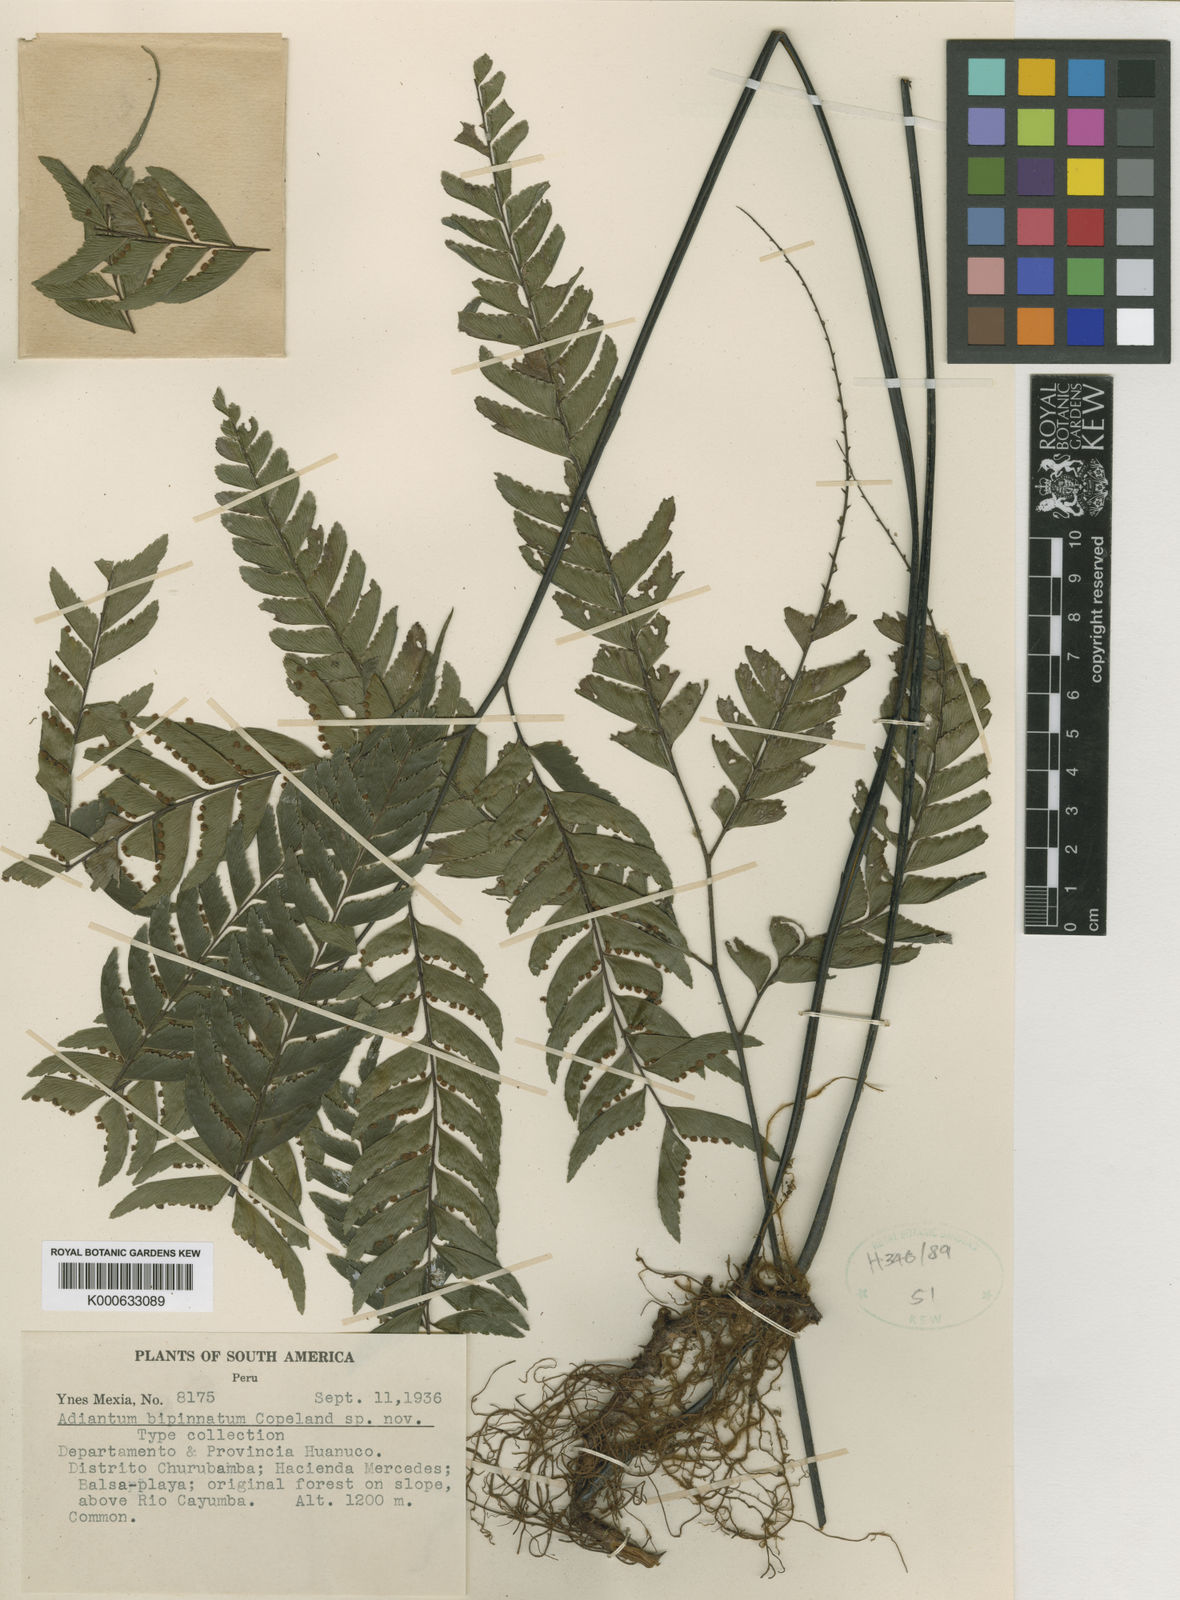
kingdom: Plantae
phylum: Tracheophyta
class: Polypodiopsida
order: Polypodiales
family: Pteridaceae
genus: Adiantum
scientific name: Adiantum
